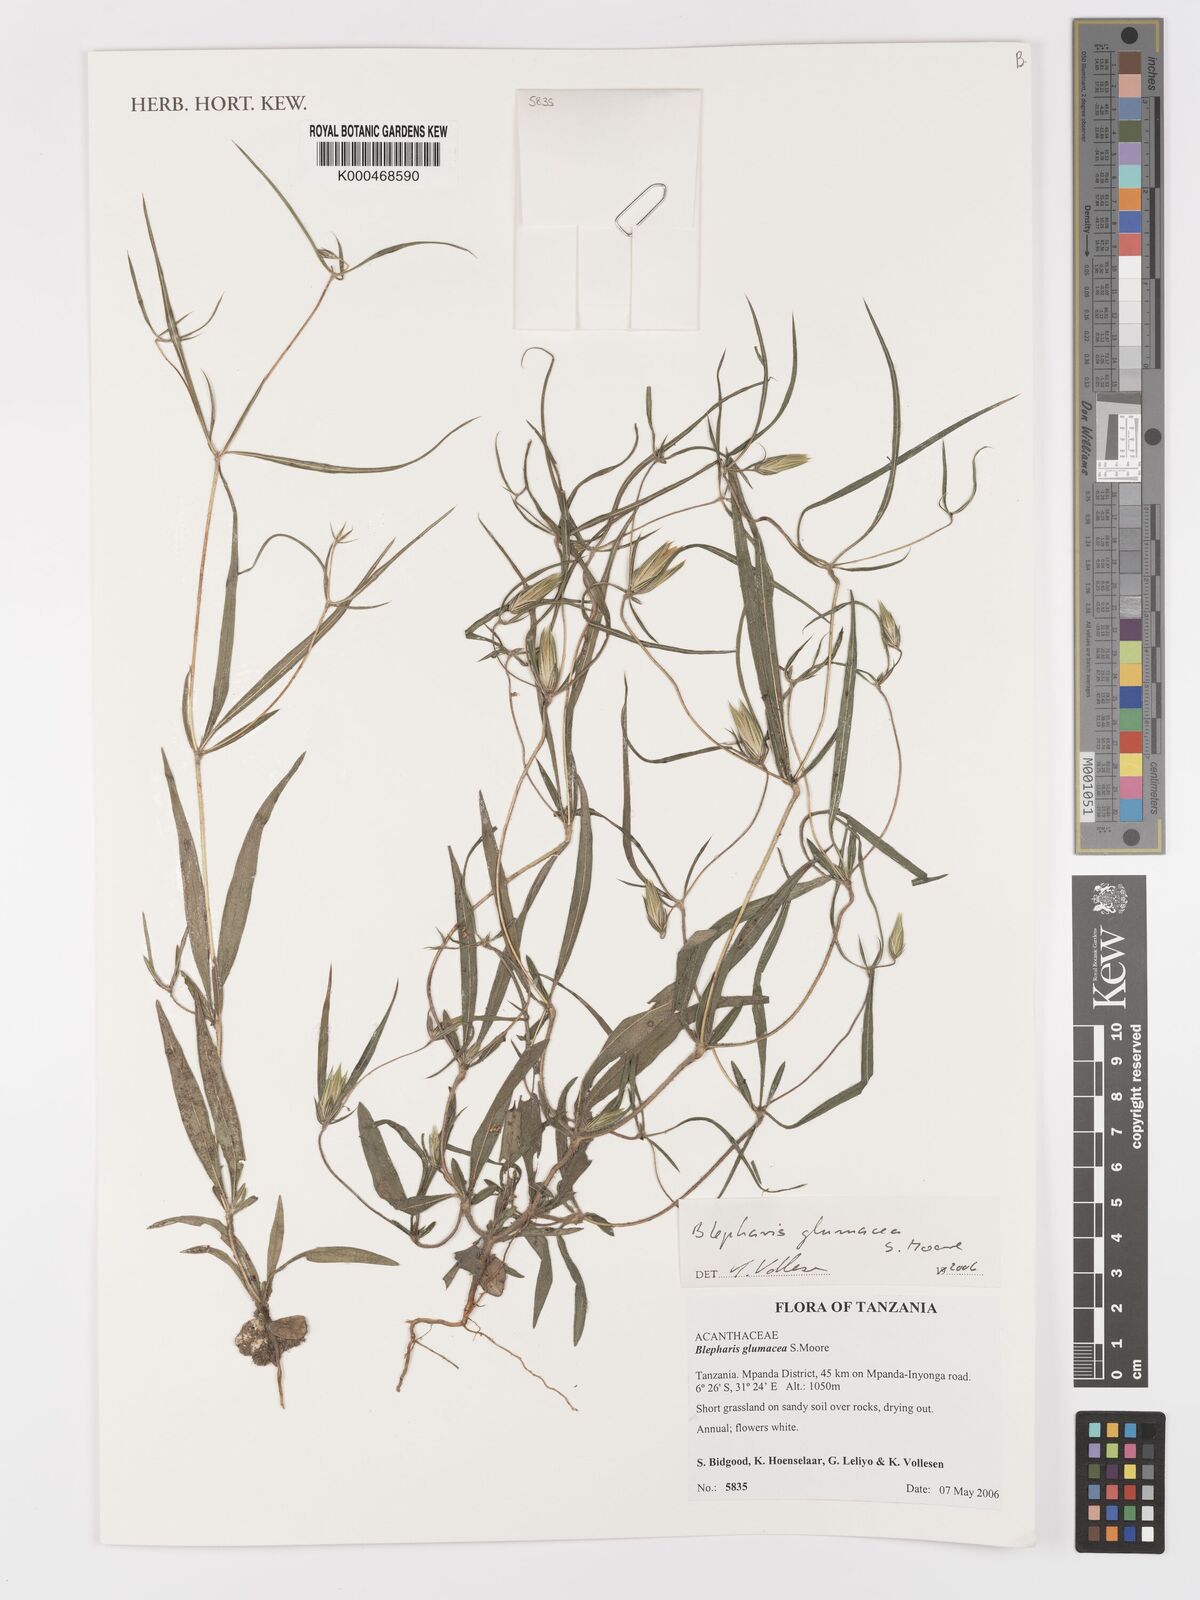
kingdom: Plantae
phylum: Tracheophyta
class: Magnoliopsida
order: Lamiales
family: Acanthaceae
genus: Blepharis
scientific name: Blepharis glumacea
